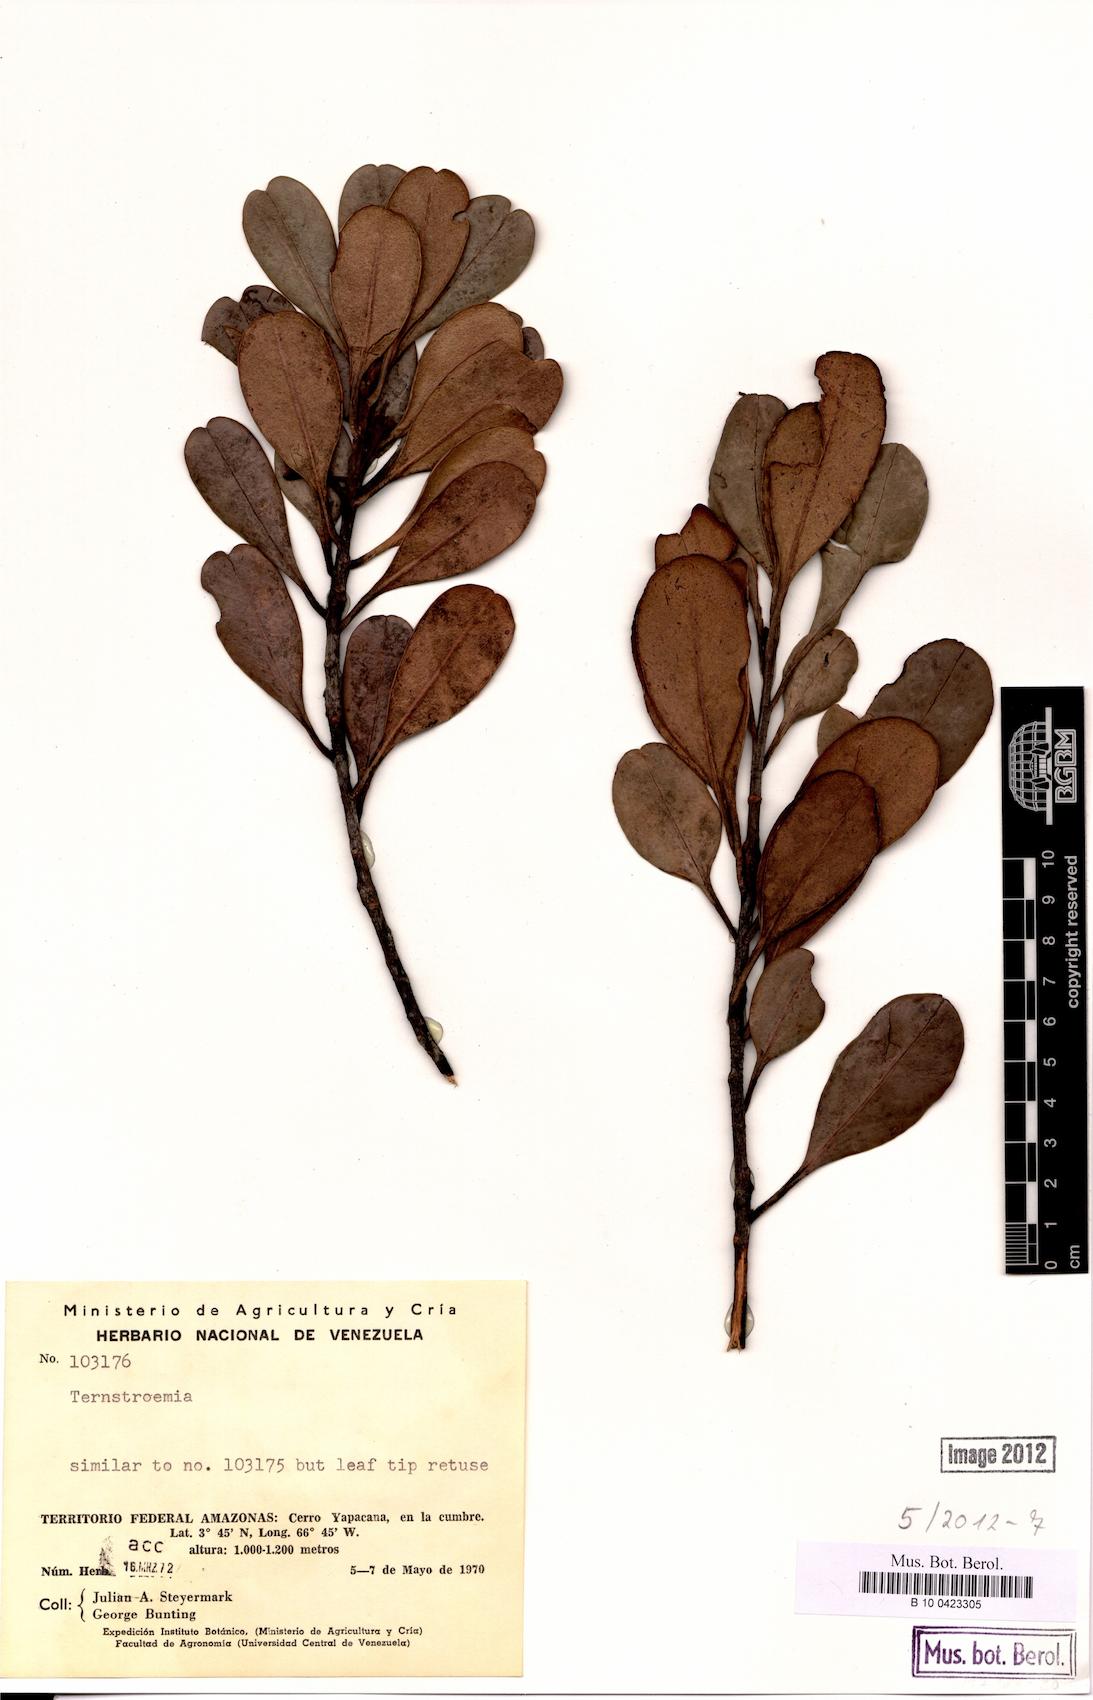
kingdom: Plantae
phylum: Tracheophyta
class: Magnoliopsida
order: Ericales
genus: Ternstroemia
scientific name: Ternstroemia
